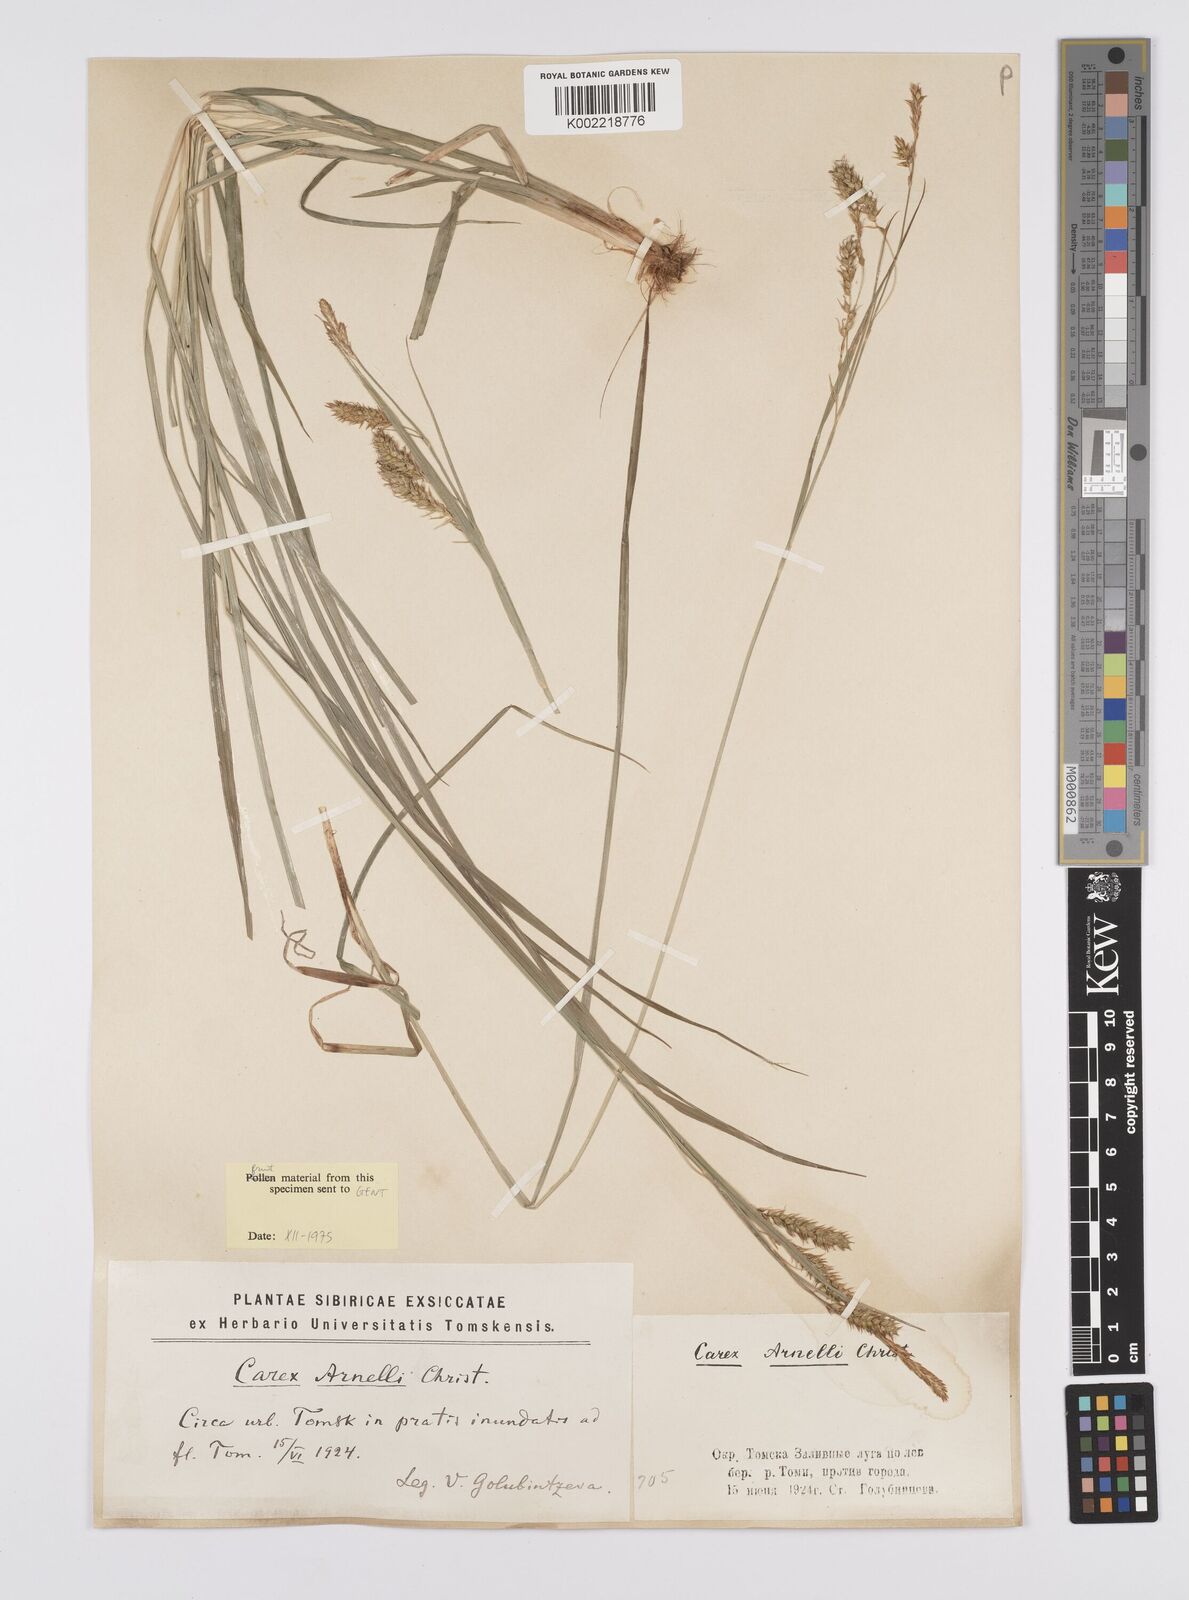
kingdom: Plantae
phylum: Tracheophyta
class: Liliopsida
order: Poales
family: Cyperaceae
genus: Carex
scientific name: Carex arnellii
